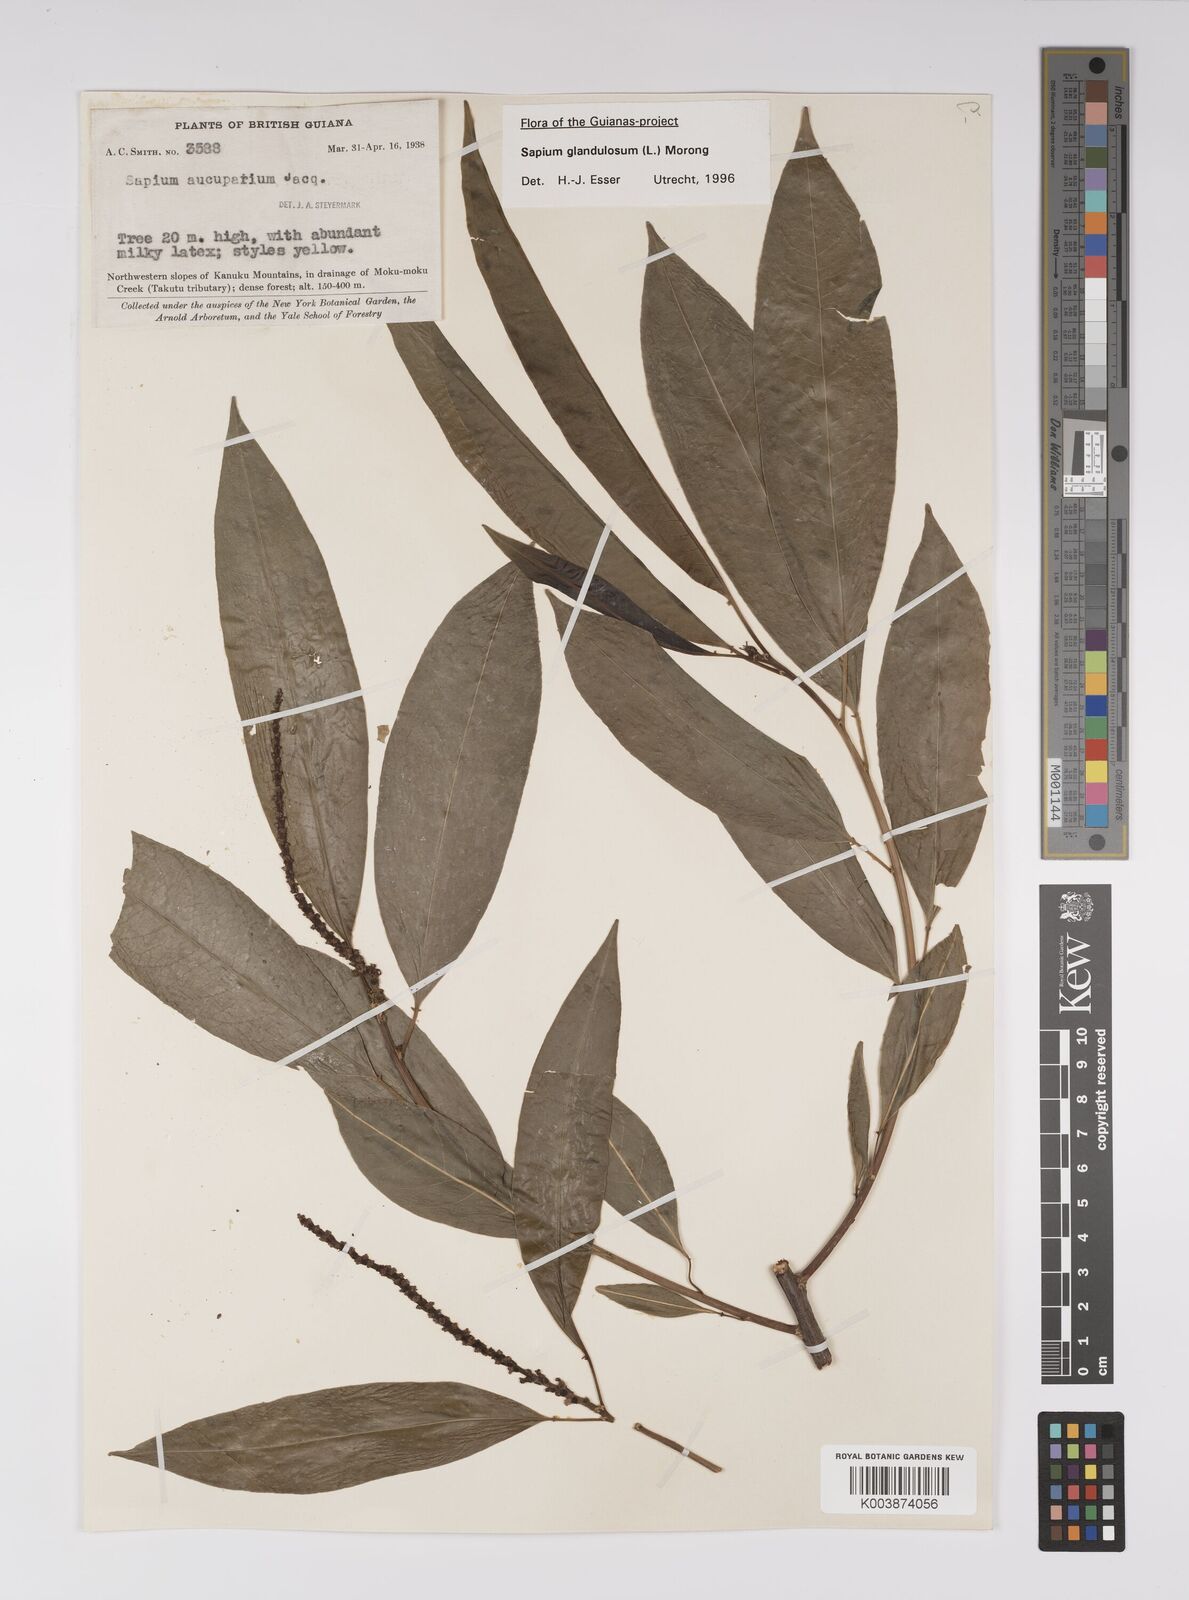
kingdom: Plantae
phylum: Tracheophyta
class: Magnoliopsida
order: Malpighiales
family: Euphorbiaceae
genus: Sapium
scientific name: Sapium glandulosum
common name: Milktree
